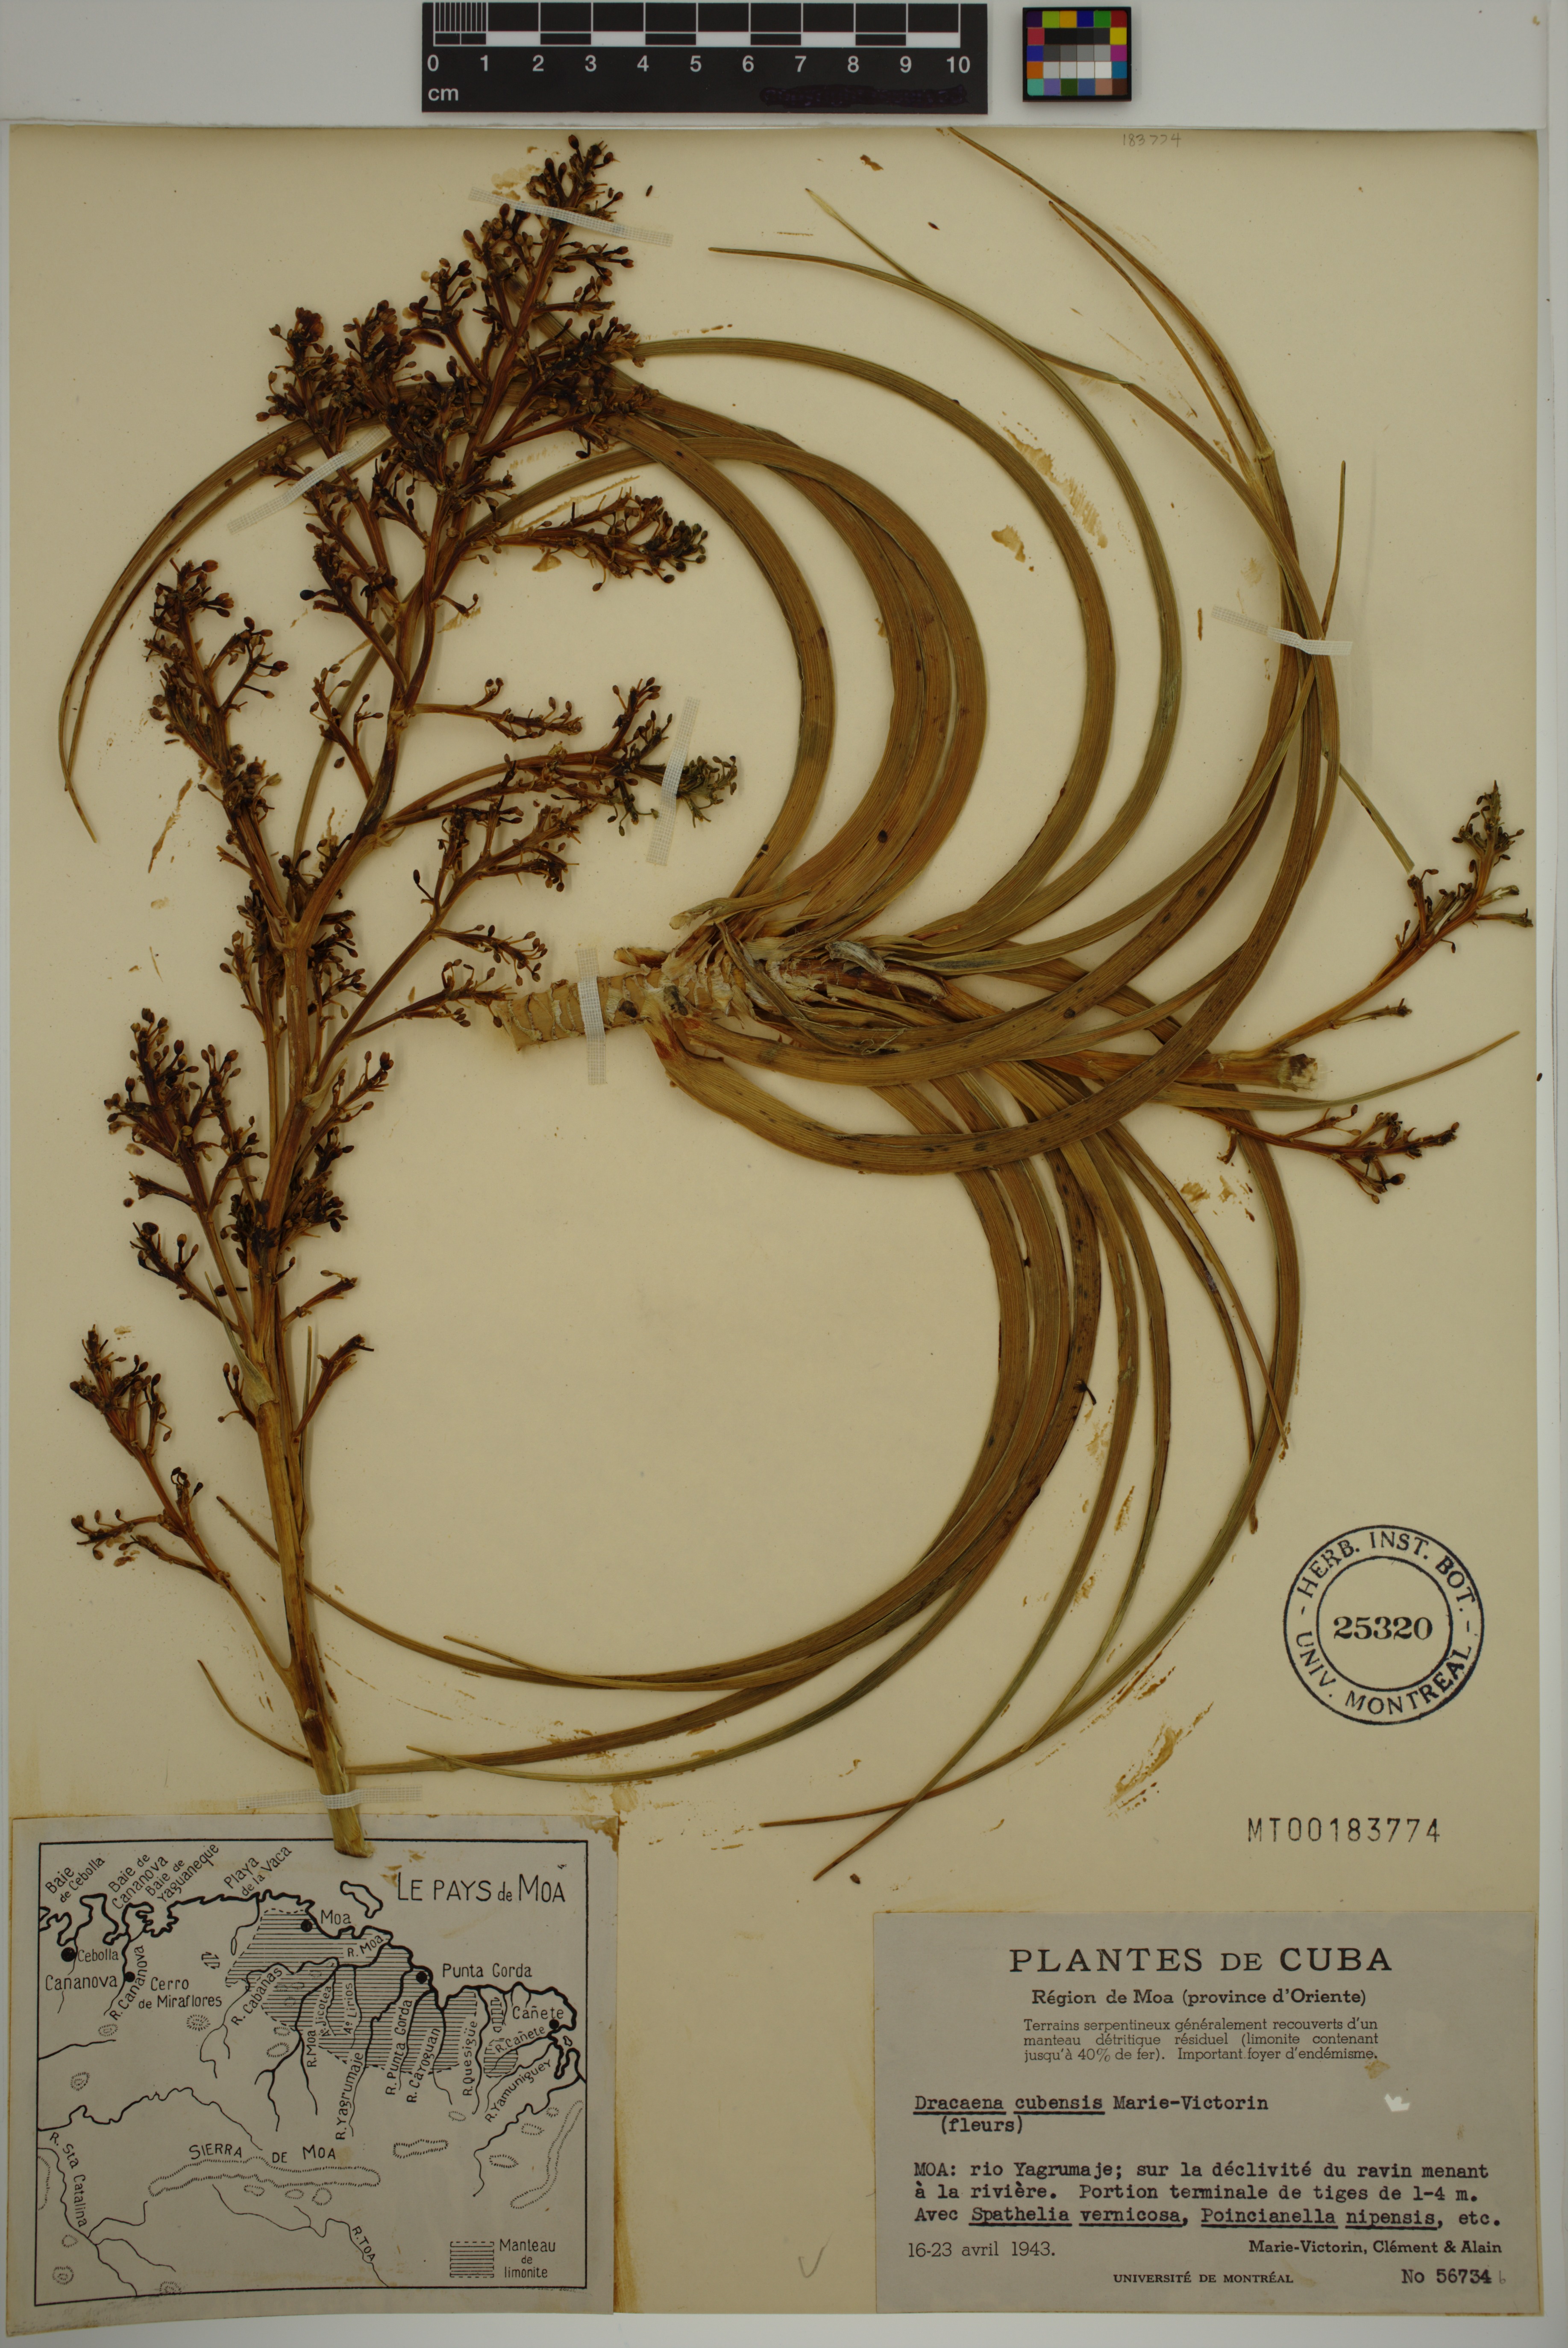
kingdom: Plantae
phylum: Tracheophyta
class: Liliopsida
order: Asparagales
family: Asparagaceae
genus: Dracaena
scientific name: Dracaena cubensis
